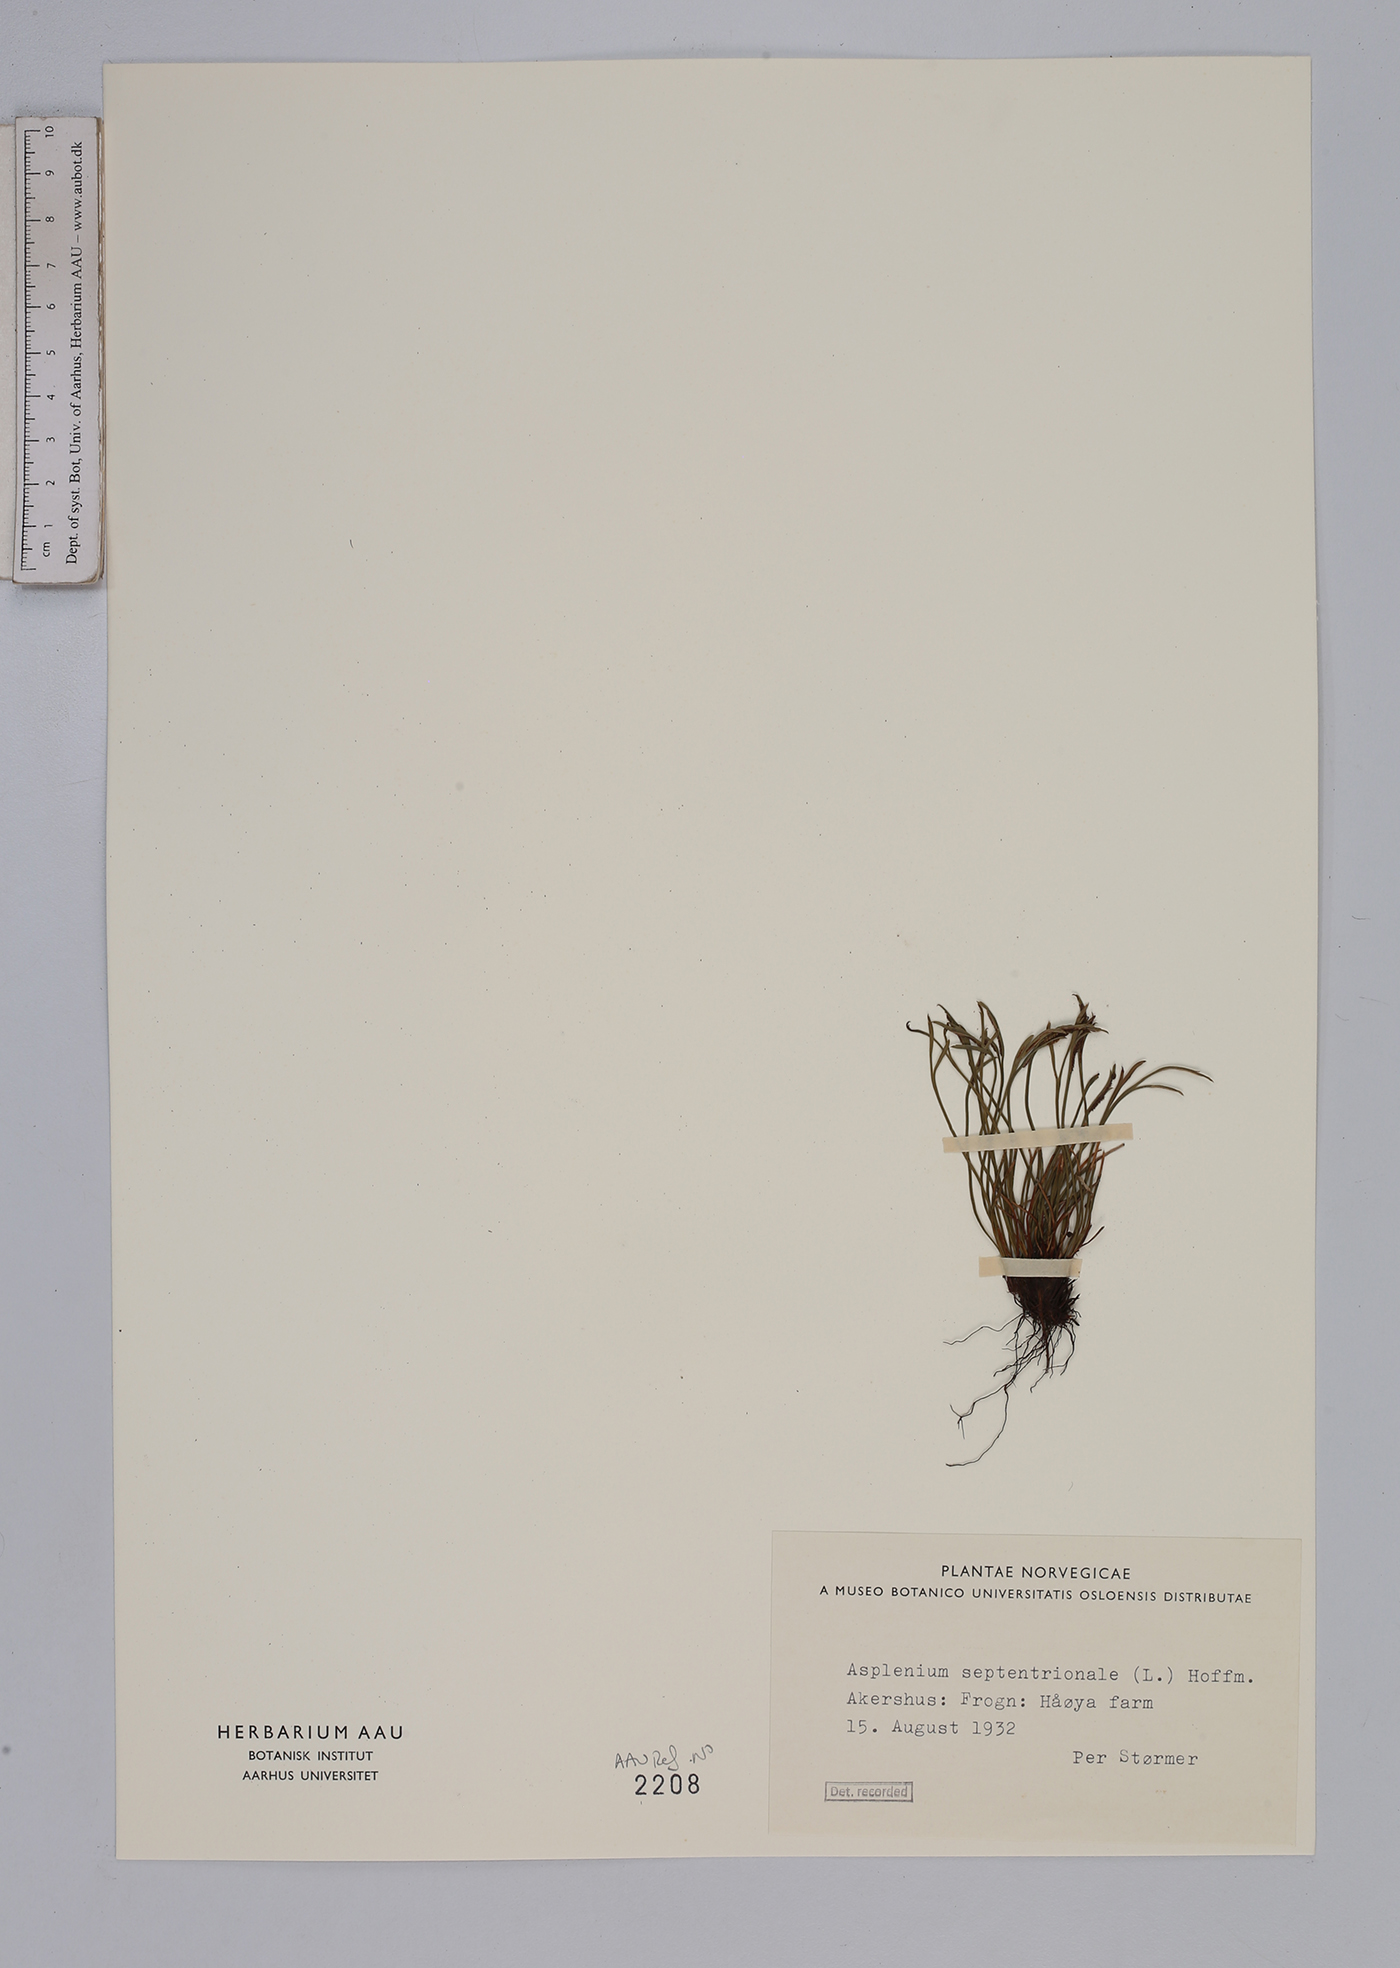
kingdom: Plantae
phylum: Tracheophyta
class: Polypodiopsida
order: Polypodiales
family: Aspleniaceae
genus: Asplenium
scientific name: Asplenium septentrionale
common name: Forked spleenwort
